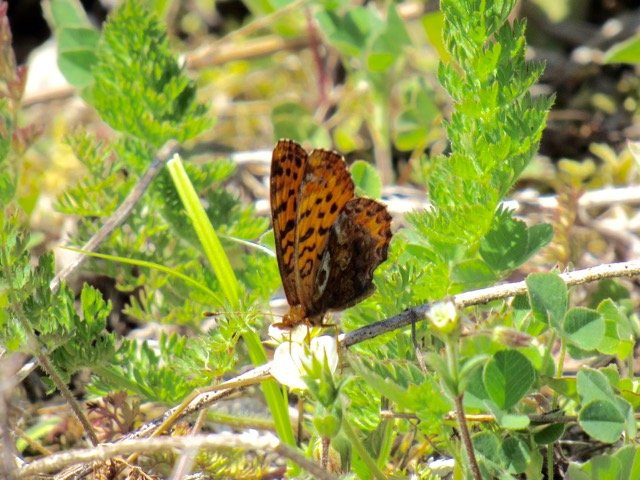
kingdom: Animalia
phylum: Arthropoda
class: Insecta
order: Lepidoptera
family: Nymphalidae
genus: Clossiana
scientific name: Clossiana toddi
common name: Meadow Fritillary
